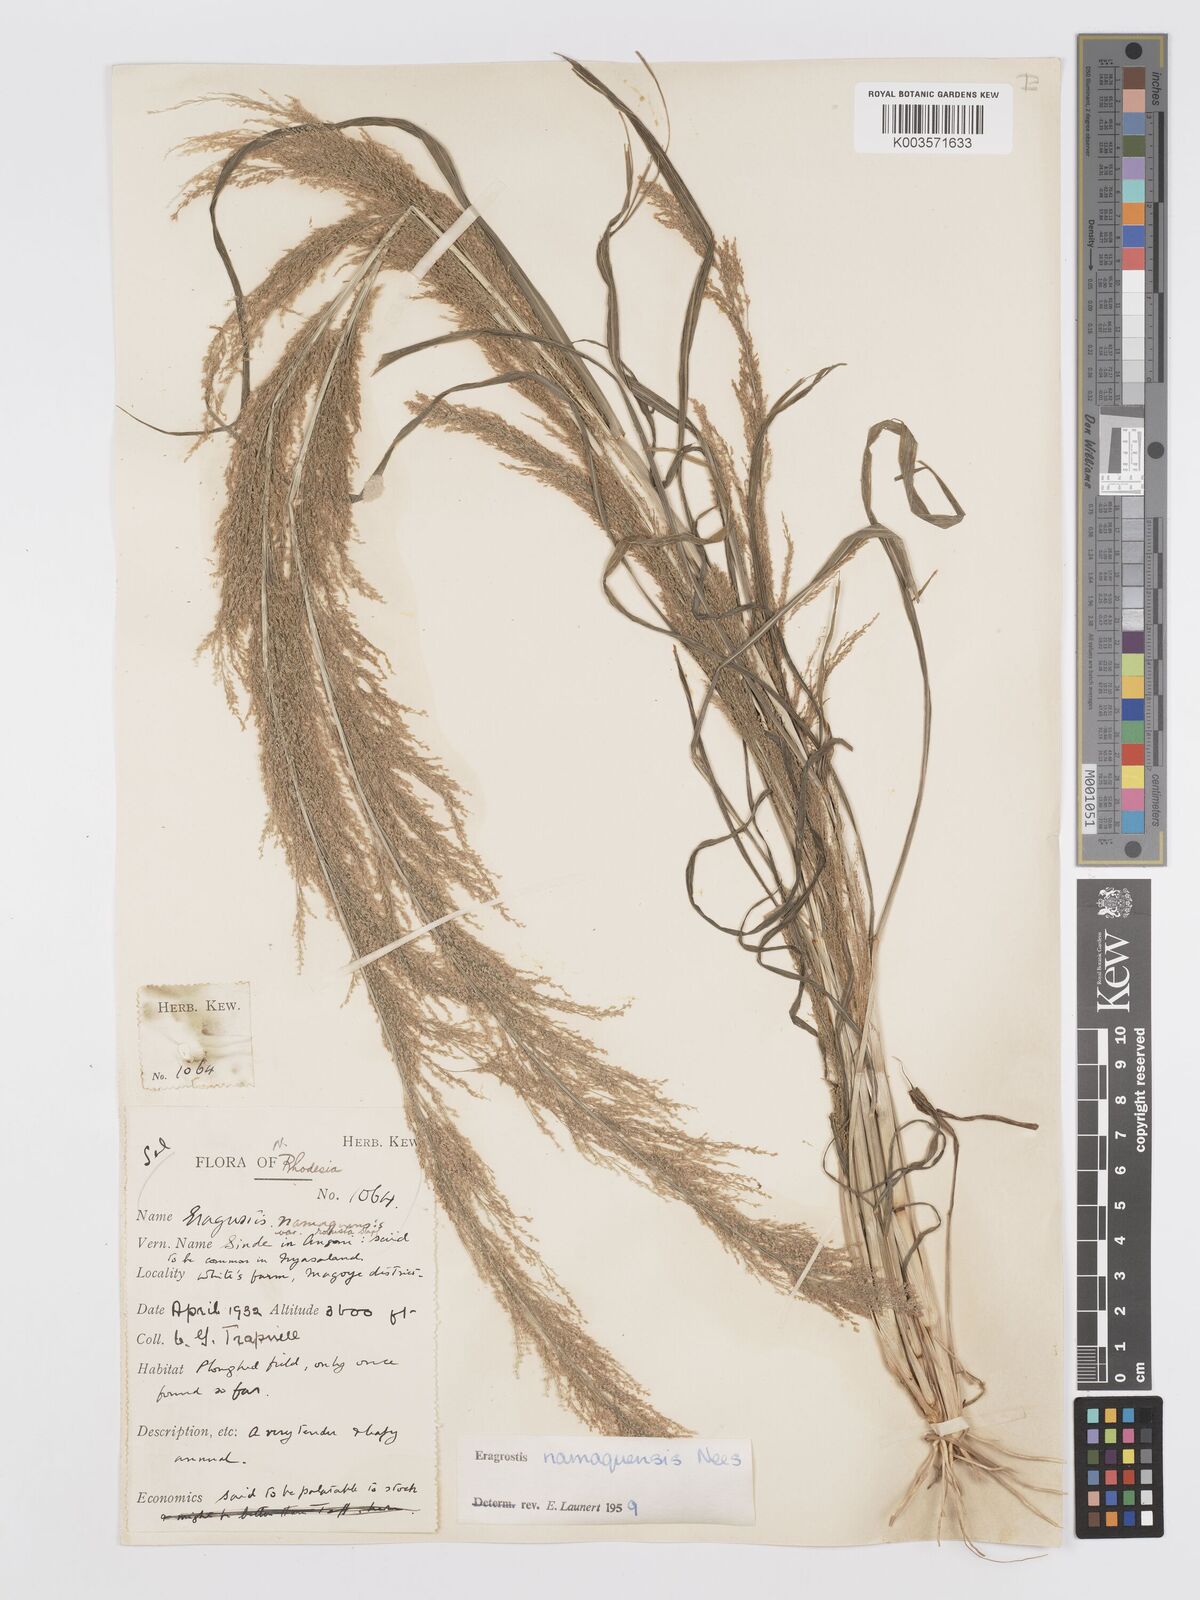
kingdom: Plantae
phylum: Tracheophyta
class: Liliopsida
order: Poales
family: Poaceae
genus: Eragrostis
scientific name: Eragrostis japonica
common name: Pond lovegrass
